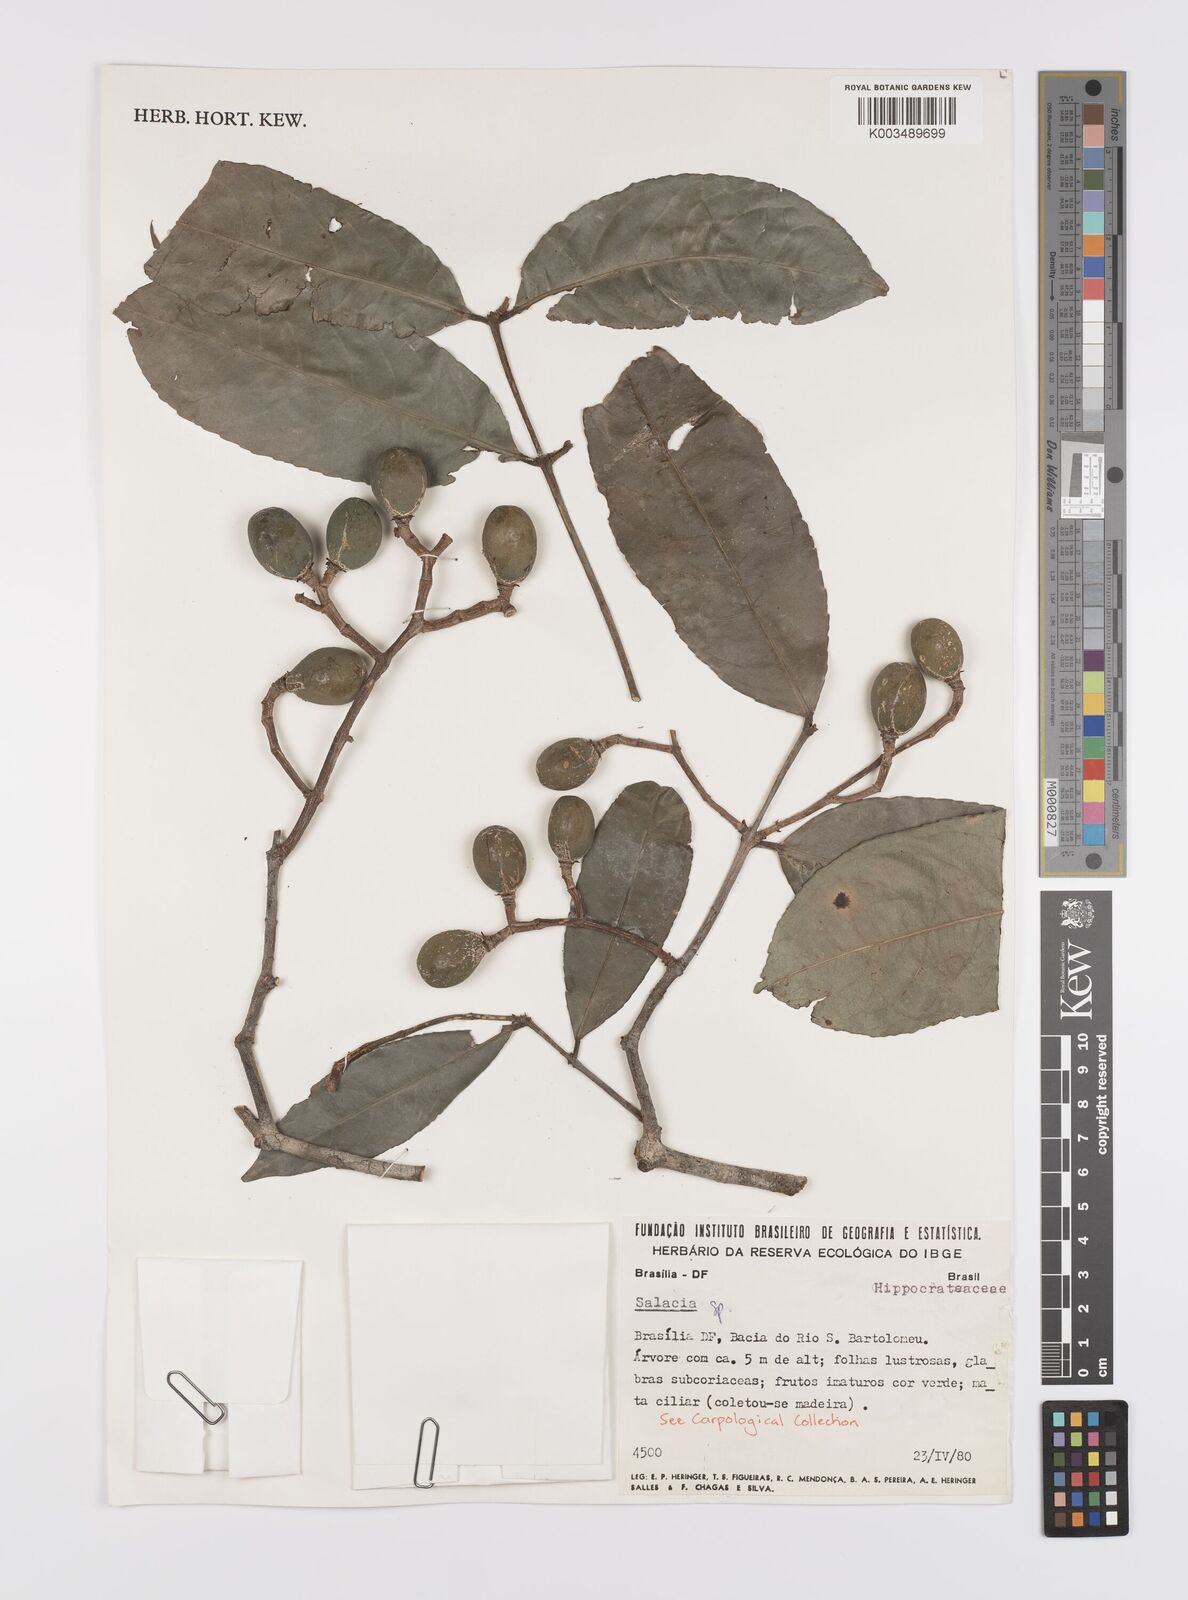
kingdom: Plantae
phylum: Tracheophyta
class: Magnoliopsida
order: Celastrales
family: Celastraceae
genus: Cheiloclinium
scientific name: Cheiloclinium cognatum
